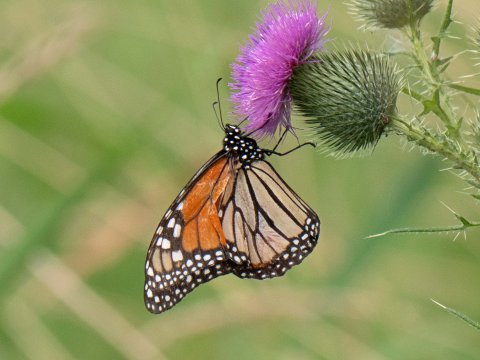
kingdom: Animalia
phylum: Arthropoda
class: Insecta
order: Lepidoptera
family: Nymphalidae
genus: Danaus
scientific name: Danaus plexippus
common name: Monarch
